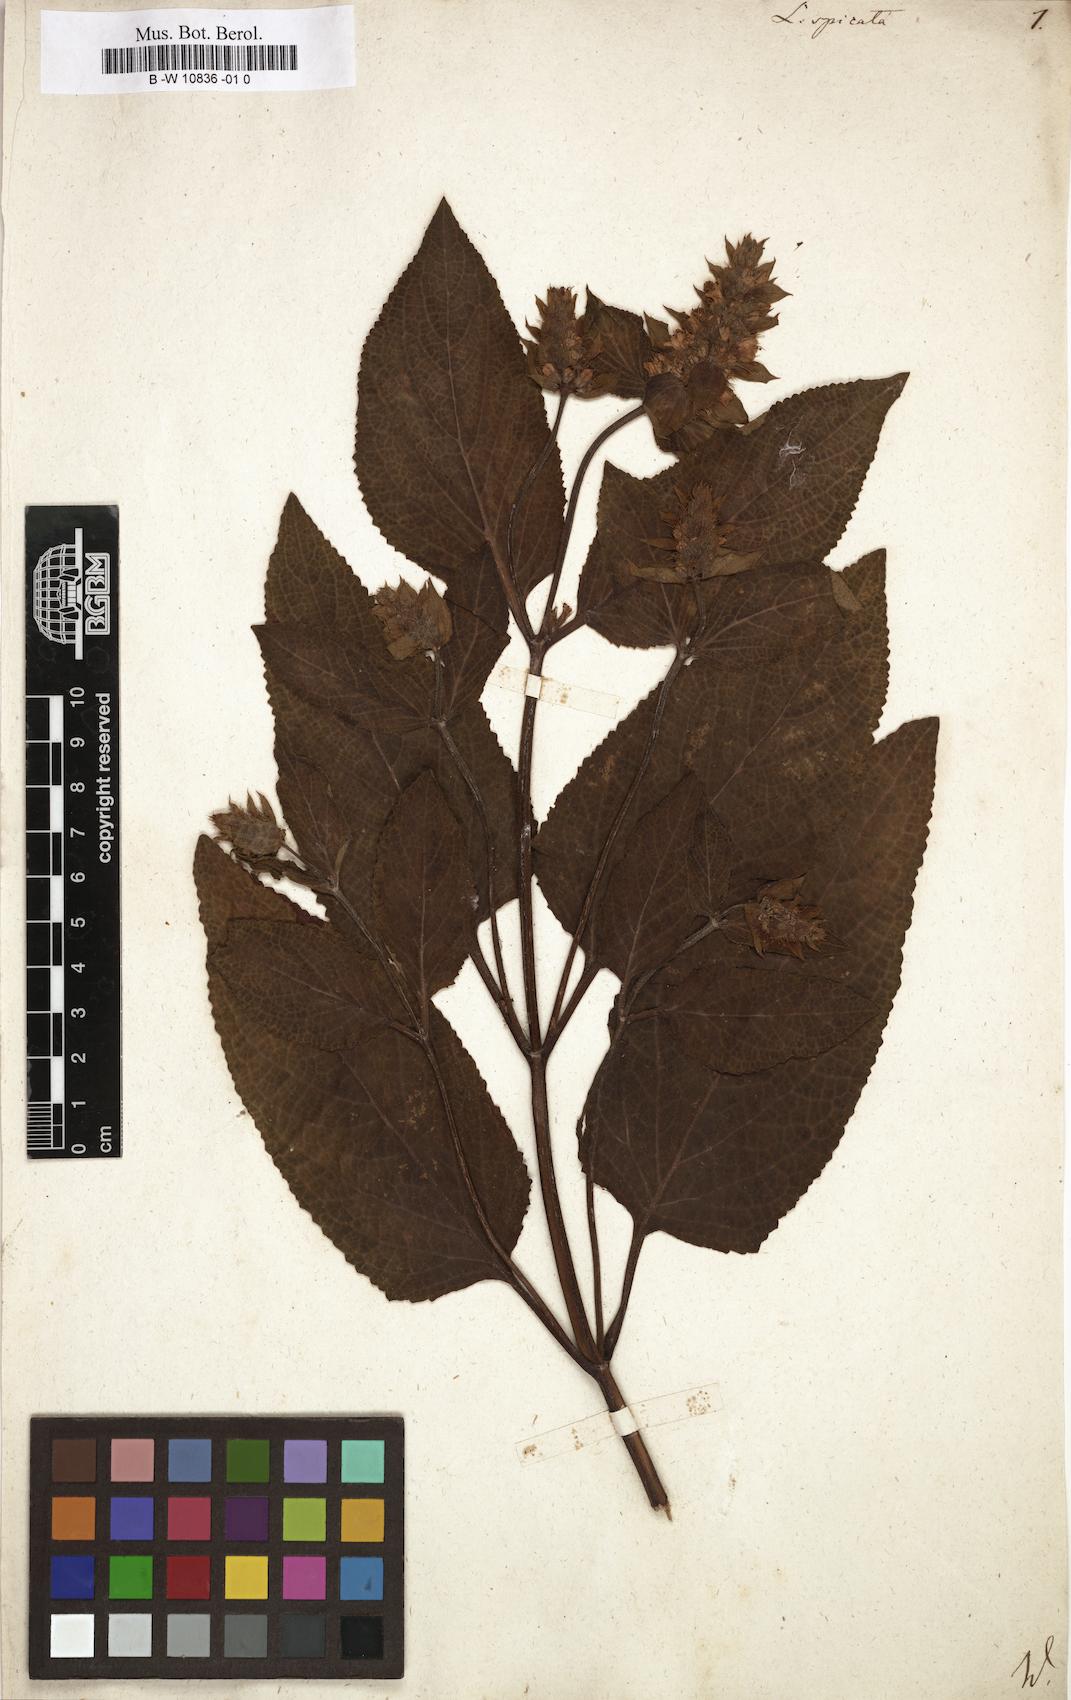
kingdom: Plantae
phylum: Tracheophyta
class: Magnoliopsida
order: Lamiales
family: Lamiaceae
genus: Lepechinia
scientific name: Lepechinia caulescens
